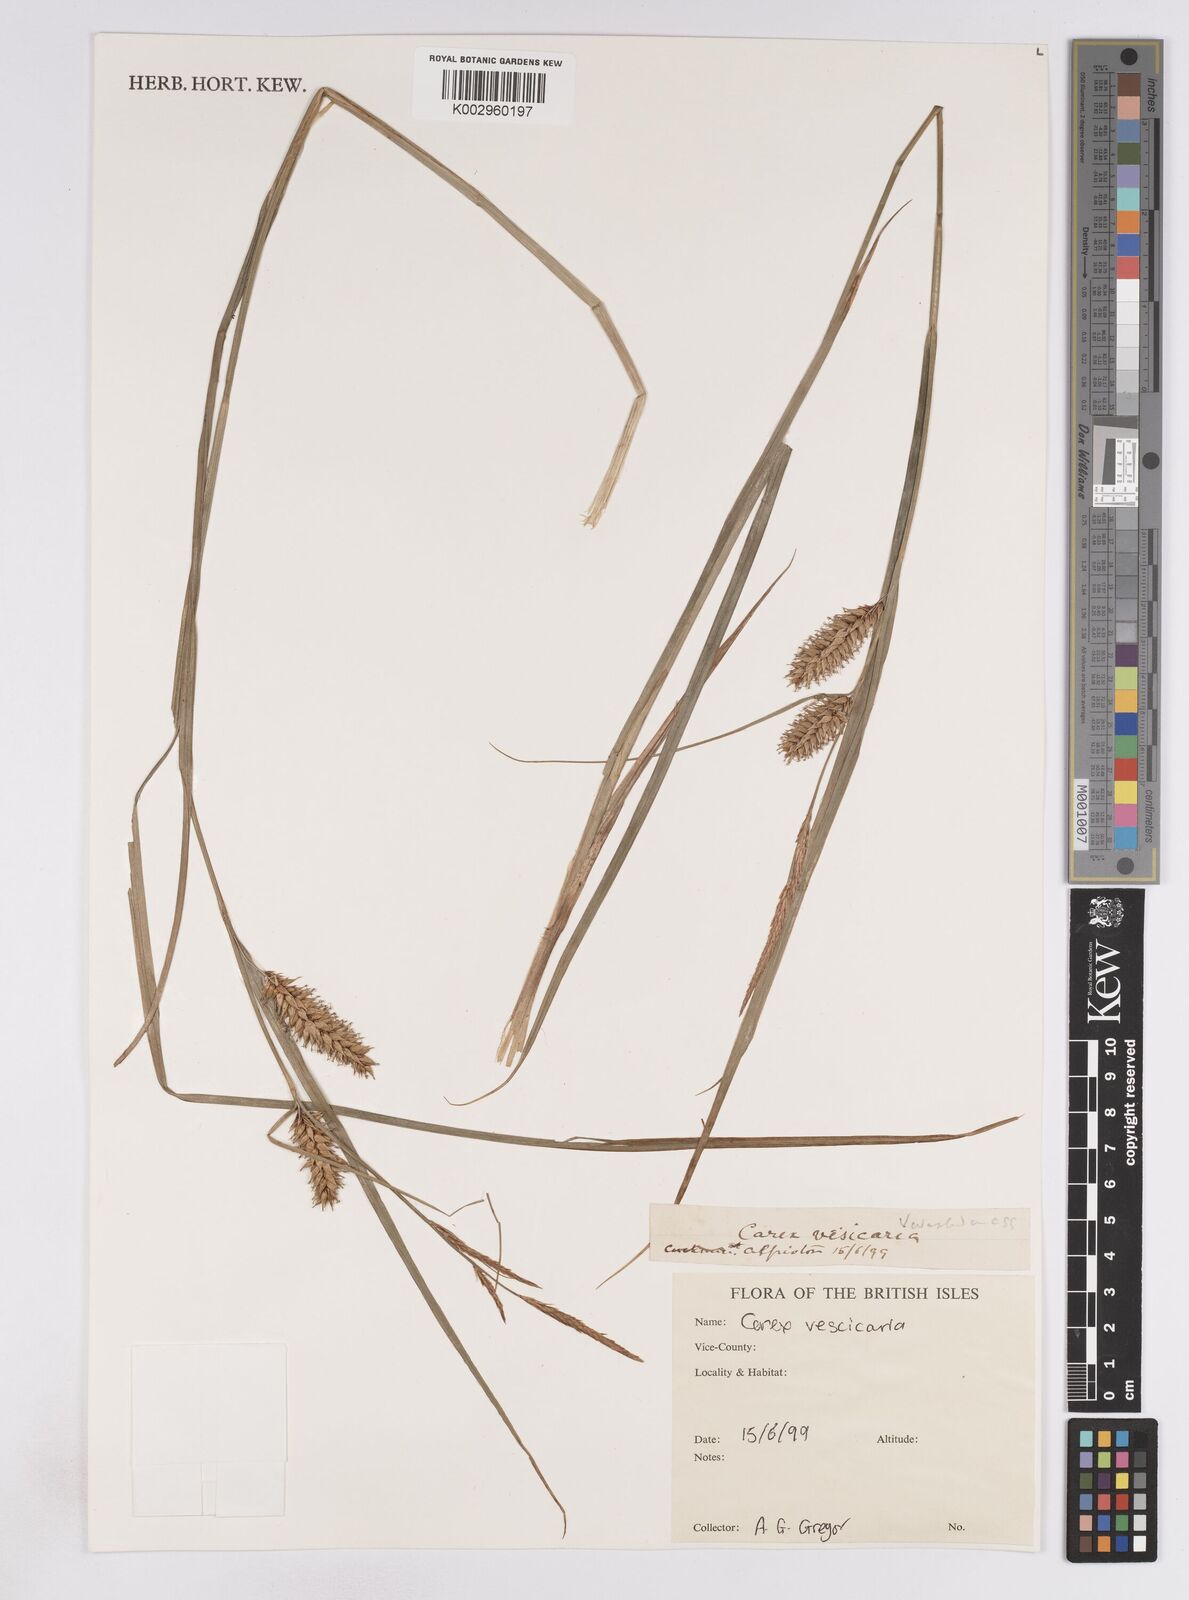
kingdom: Plantae
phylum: Tracheophyta
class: Liliopsida
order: Poales
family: Cyperaceae
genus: Carex
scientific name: Carex vesicaria
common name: Bladder-sedge
